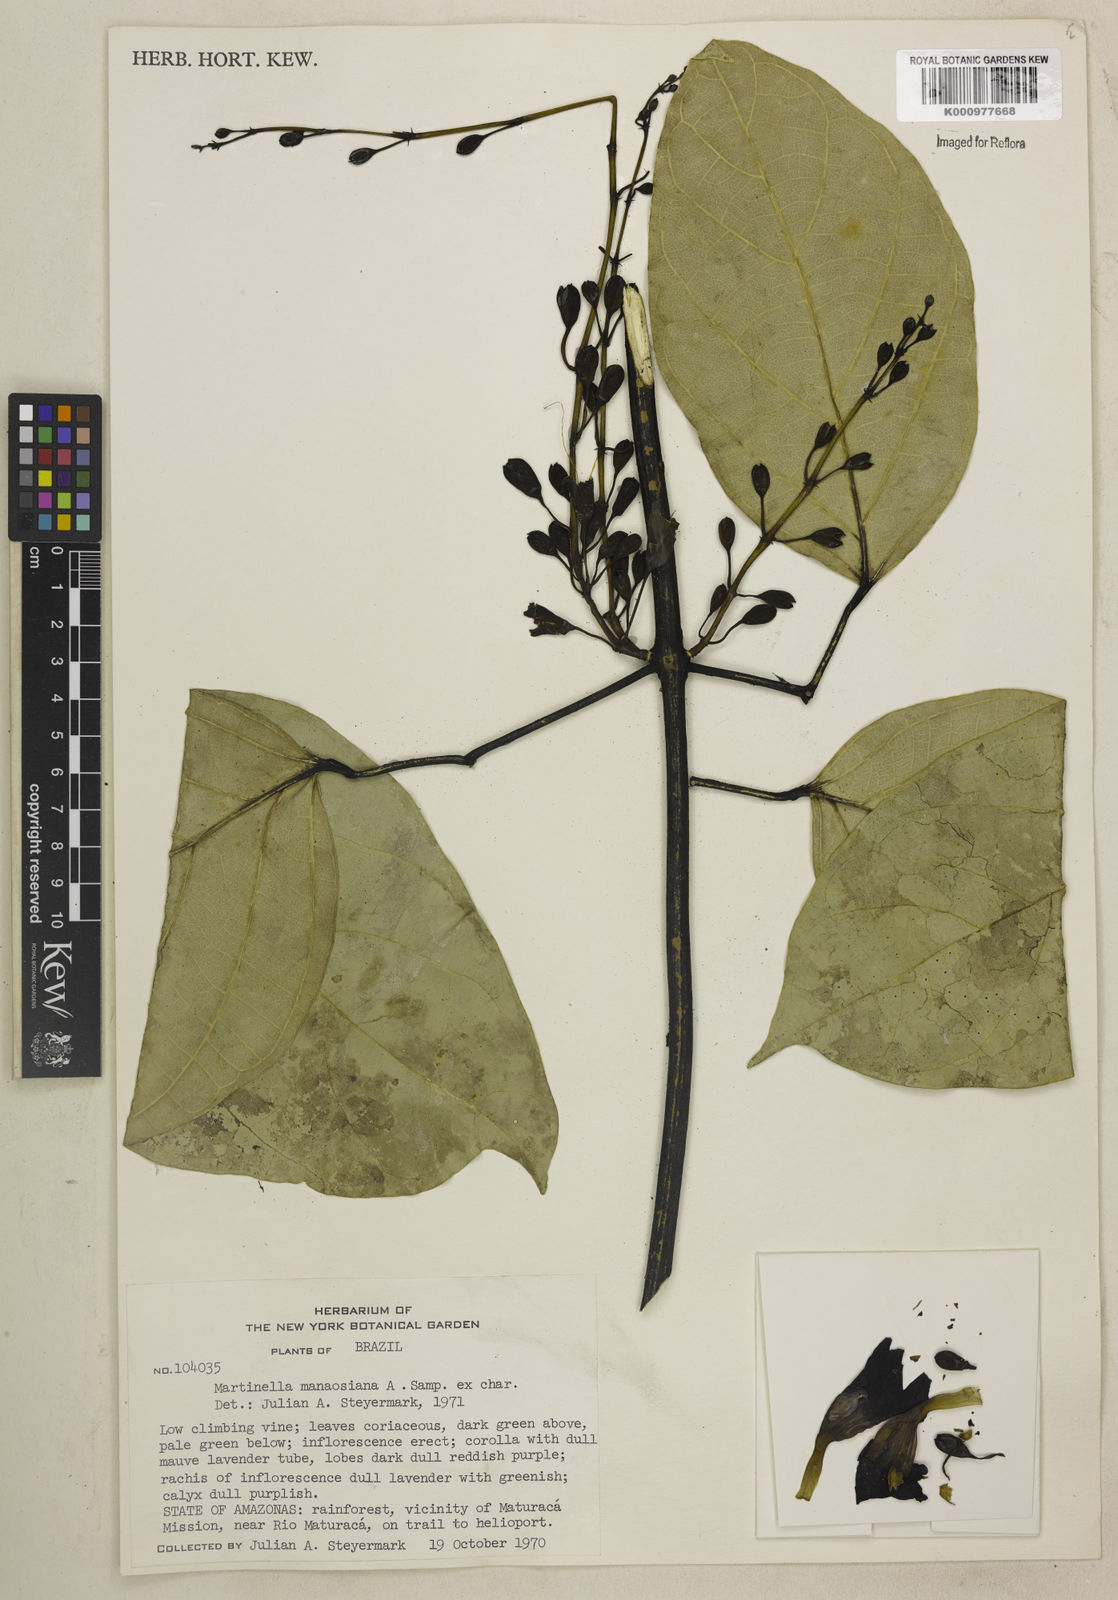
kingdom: Plantae
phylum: Tracheophyta
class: Magnoliopsida
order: Lamiales
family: Bignoniaceae
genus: Martinella
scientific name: Martinella iquitoensis
